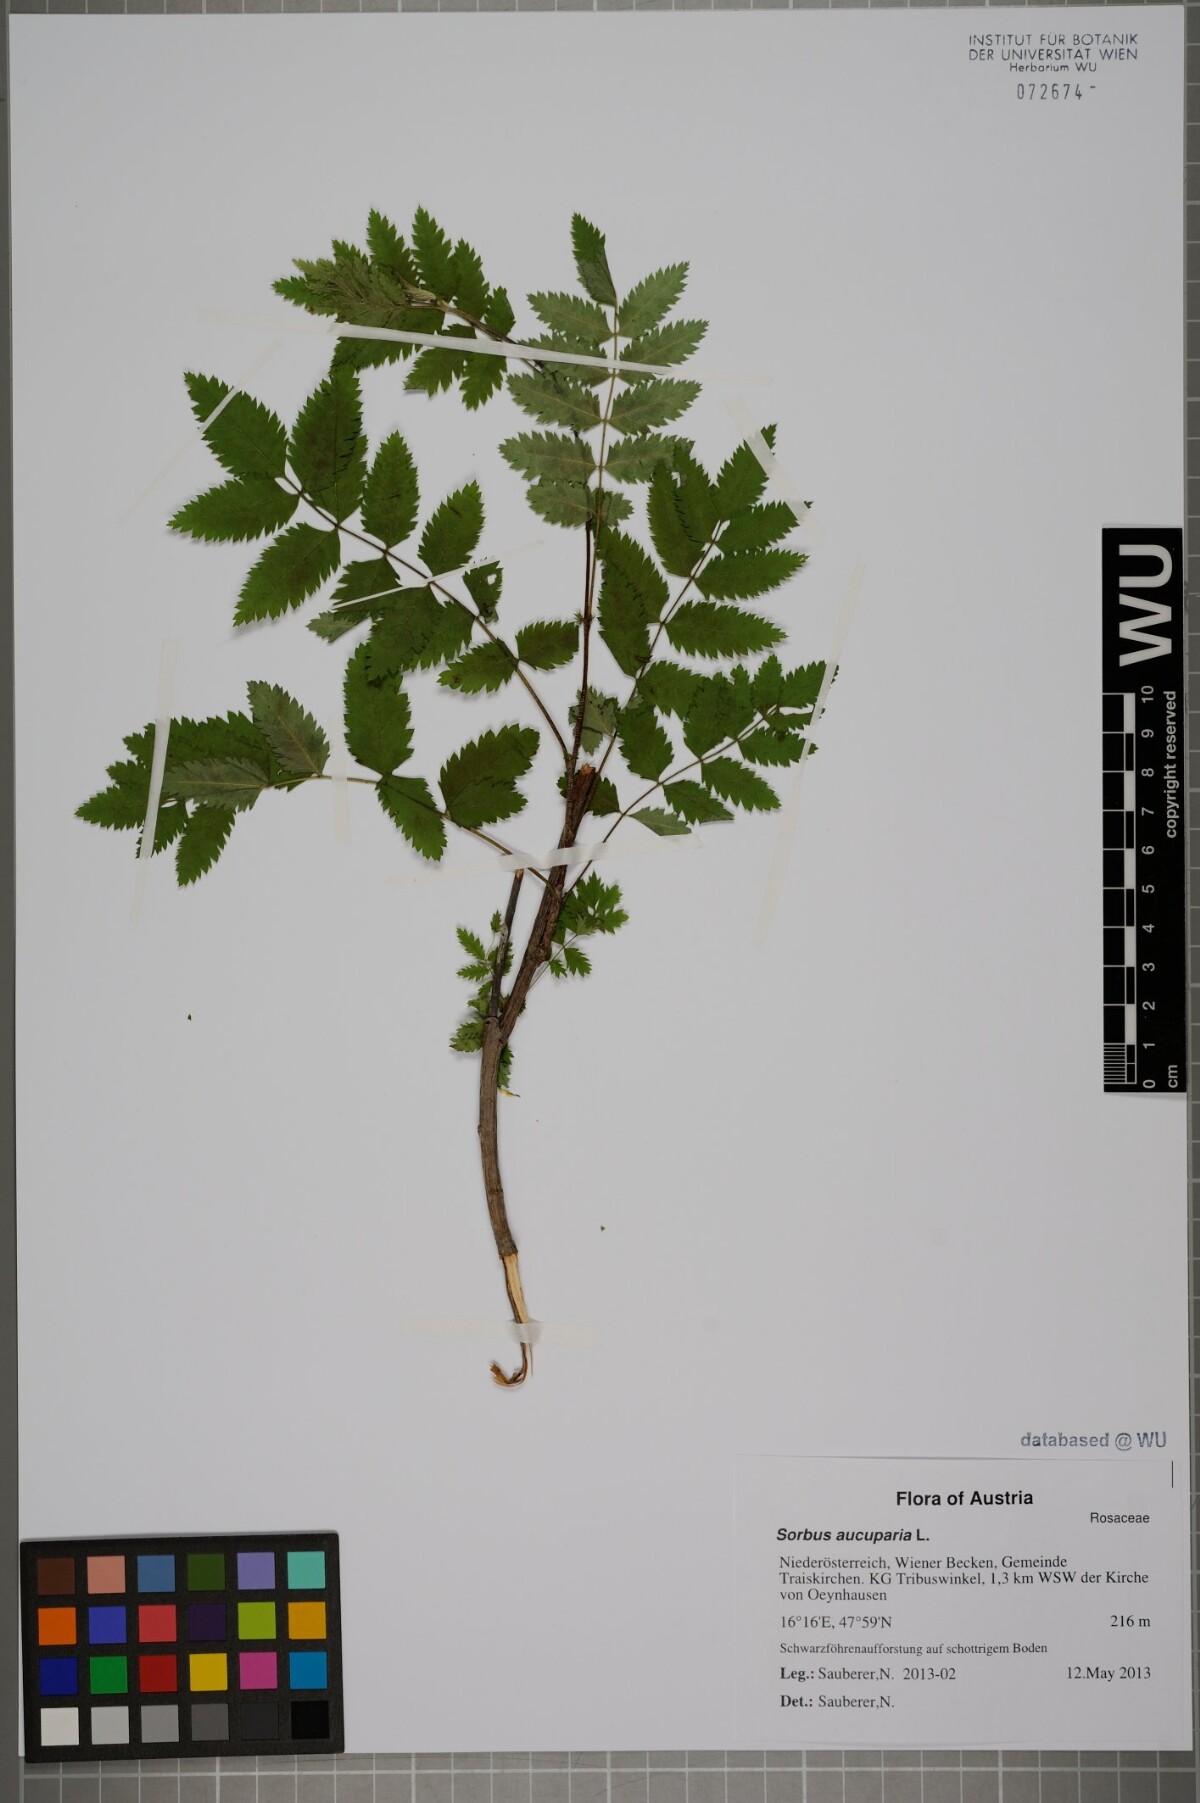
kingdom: Plantae
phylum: Tracheophyta
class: Magnoliopsida
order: Rosales
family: Rosaceae
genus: Sorbus
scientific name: Sorbus aucuparia
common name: Rowan
